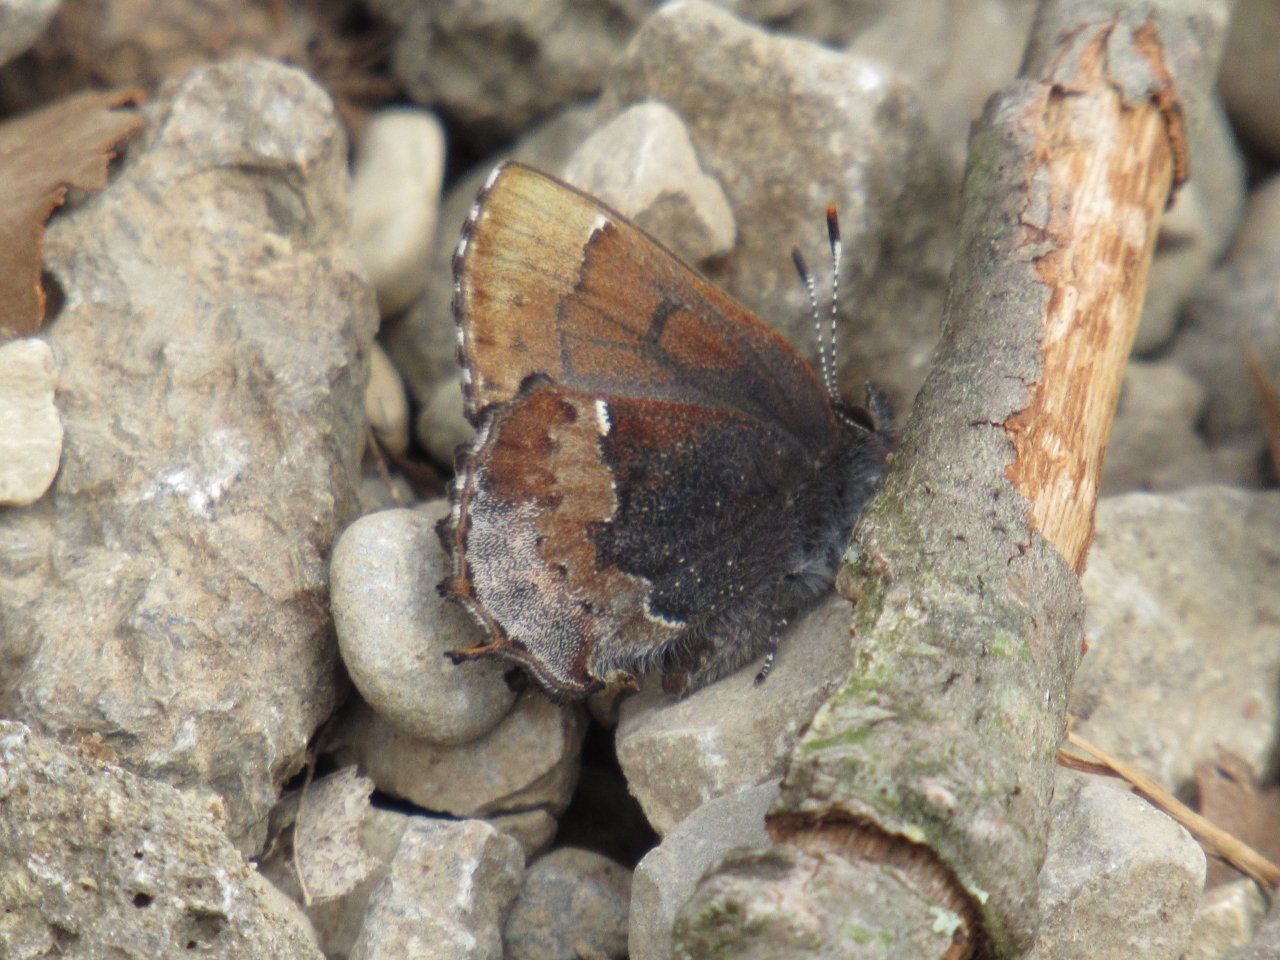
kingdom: Animalia
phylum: Arthropoda
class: Insecta
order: Lepidoptera
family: Lycaenidae
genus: Incisalia
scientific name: Incisalia henrici
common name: Henry's Elfin
